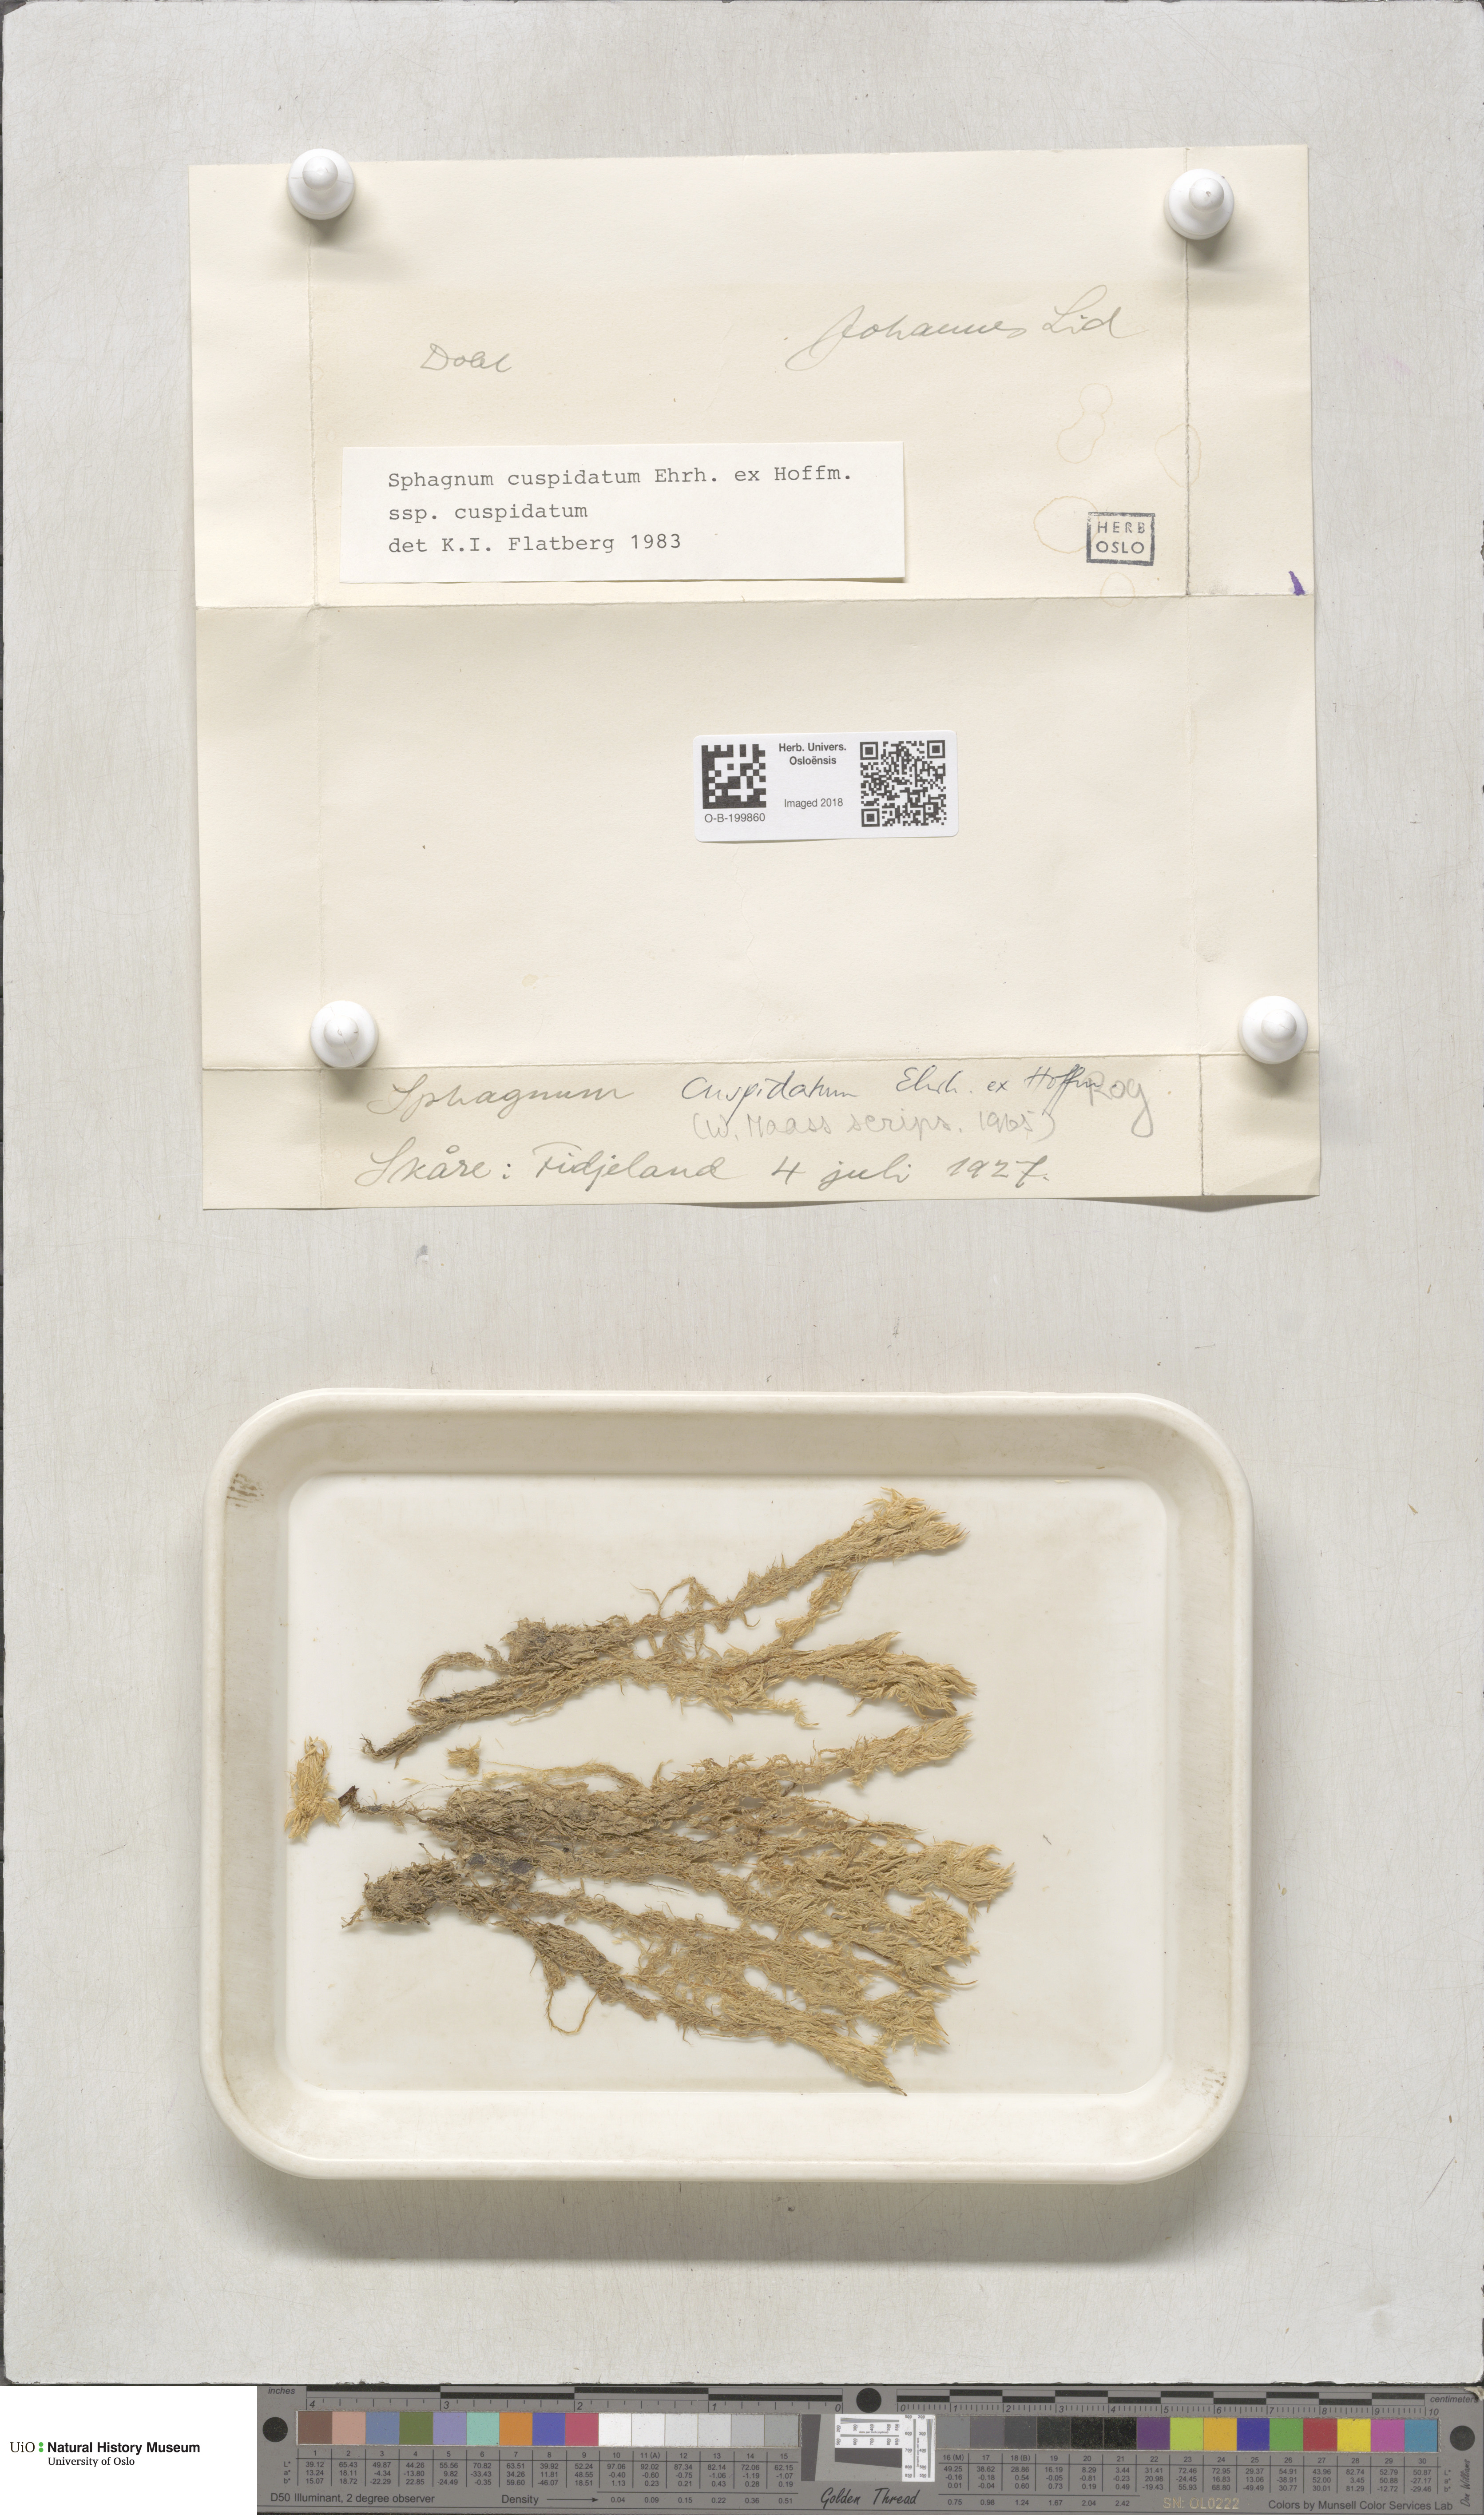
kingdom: Plantae
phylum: Bryophyta
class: Sphagnopsida
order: Sphagnales
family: Sphagnaceae
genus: Sphagnum
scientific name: Sphagnum cuspidatum
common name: Feathery peat moss
